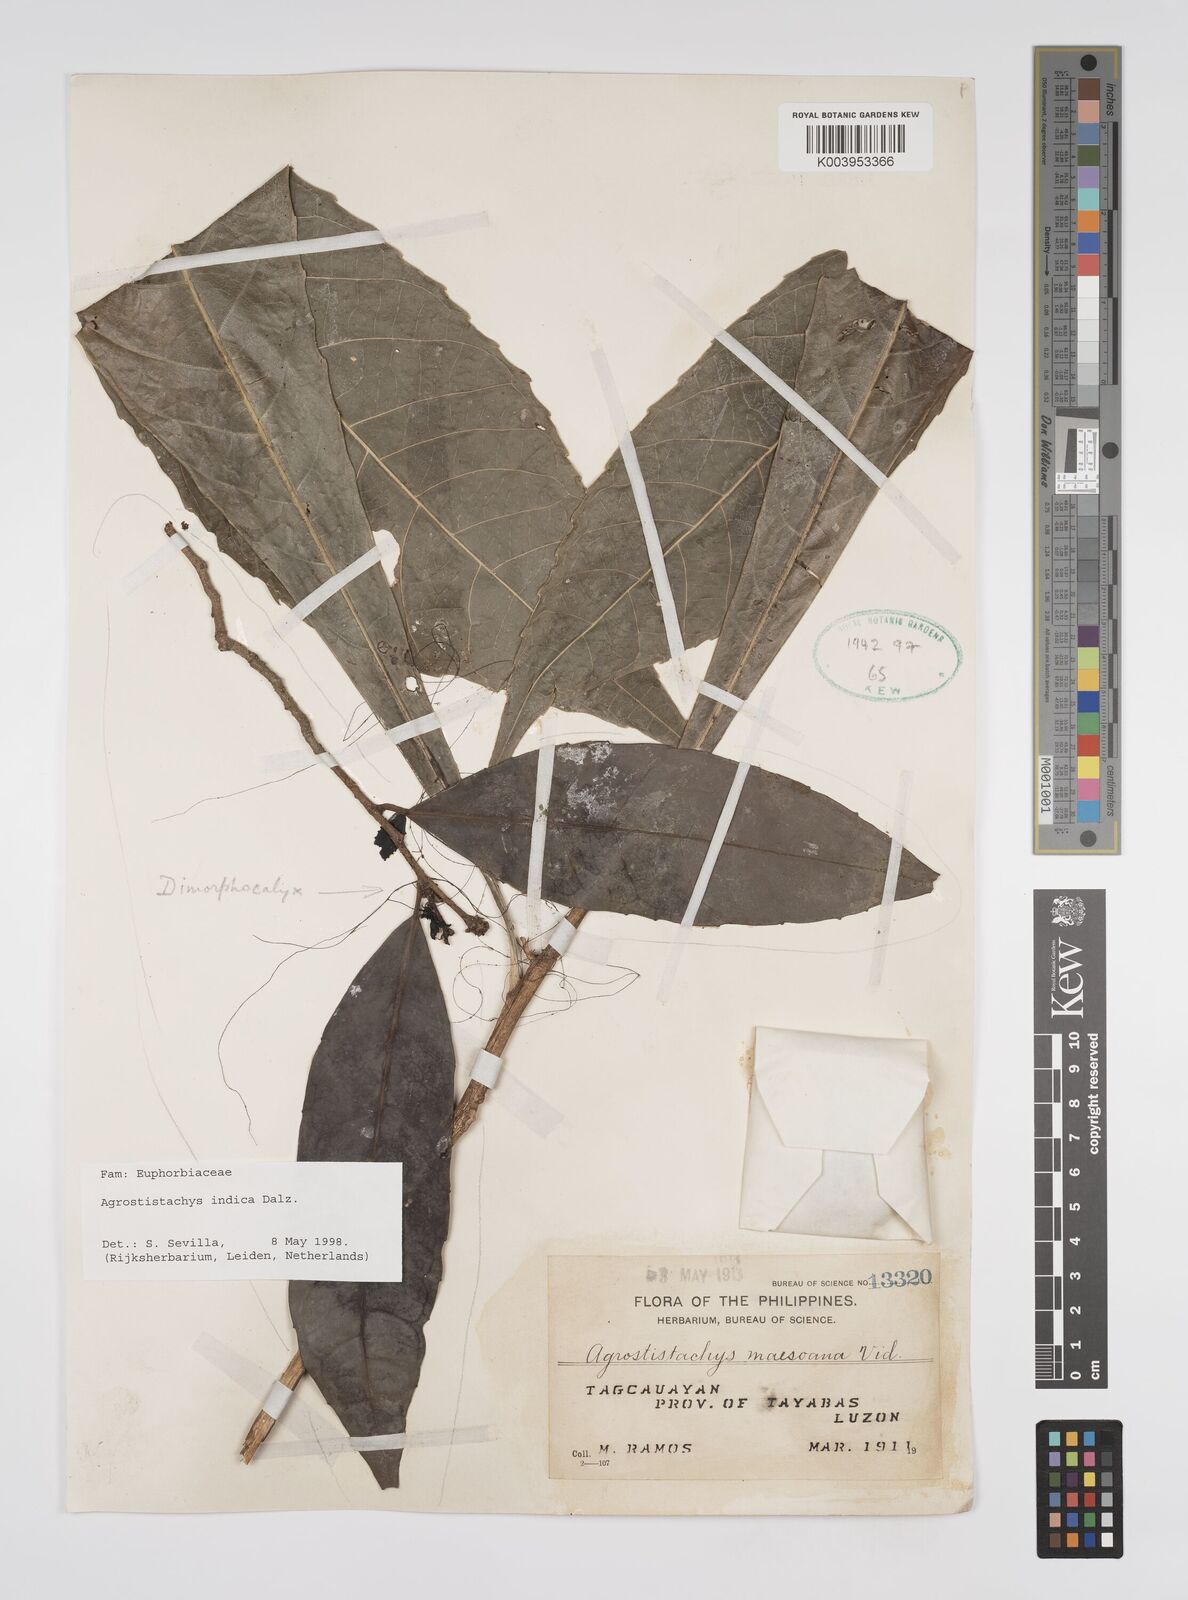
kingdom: Plantae
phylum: Tracheophyta
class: Magnoliopsida
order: Malpighiales
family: Euphorbiaceae
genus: Agrostistachys
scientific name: Agrostistachys indica
